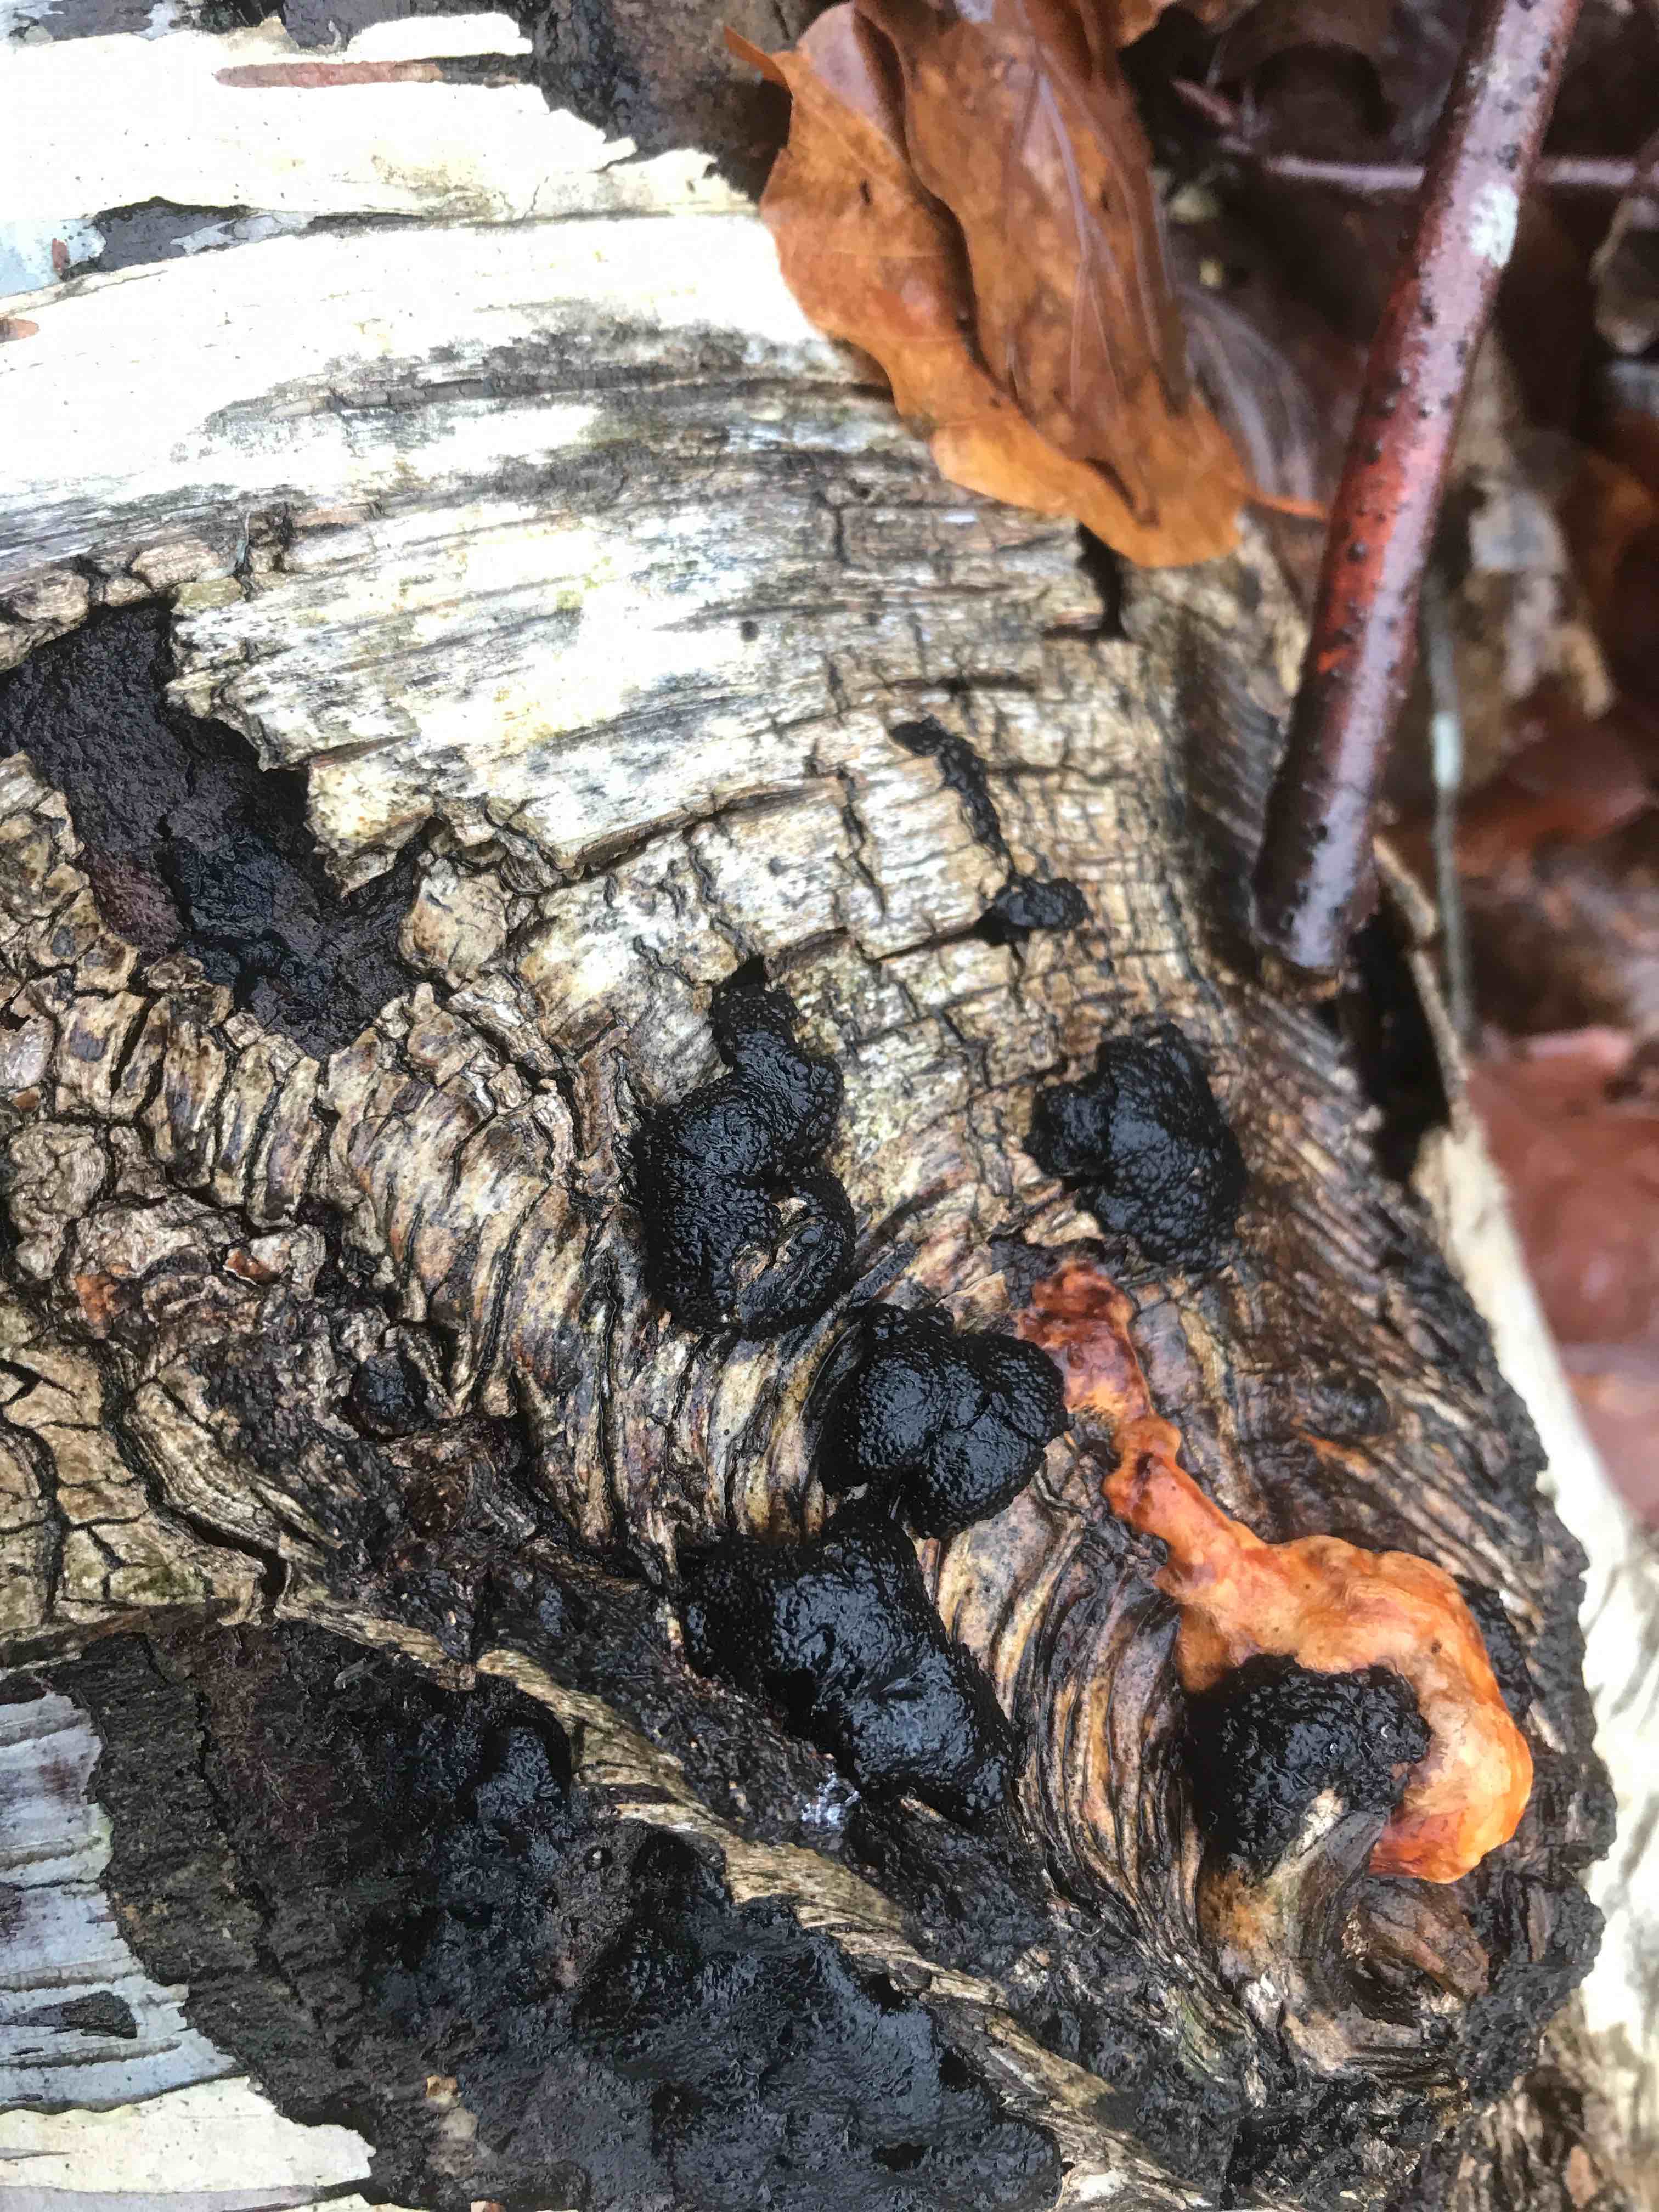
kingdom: Fungi
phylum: Ascomycota
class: Sordariomycetes
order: Xylariales
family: Hypoxylaceae
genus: Jackrogersella
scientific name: Jackrogersella multiformis
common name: foranderlig kulbær
